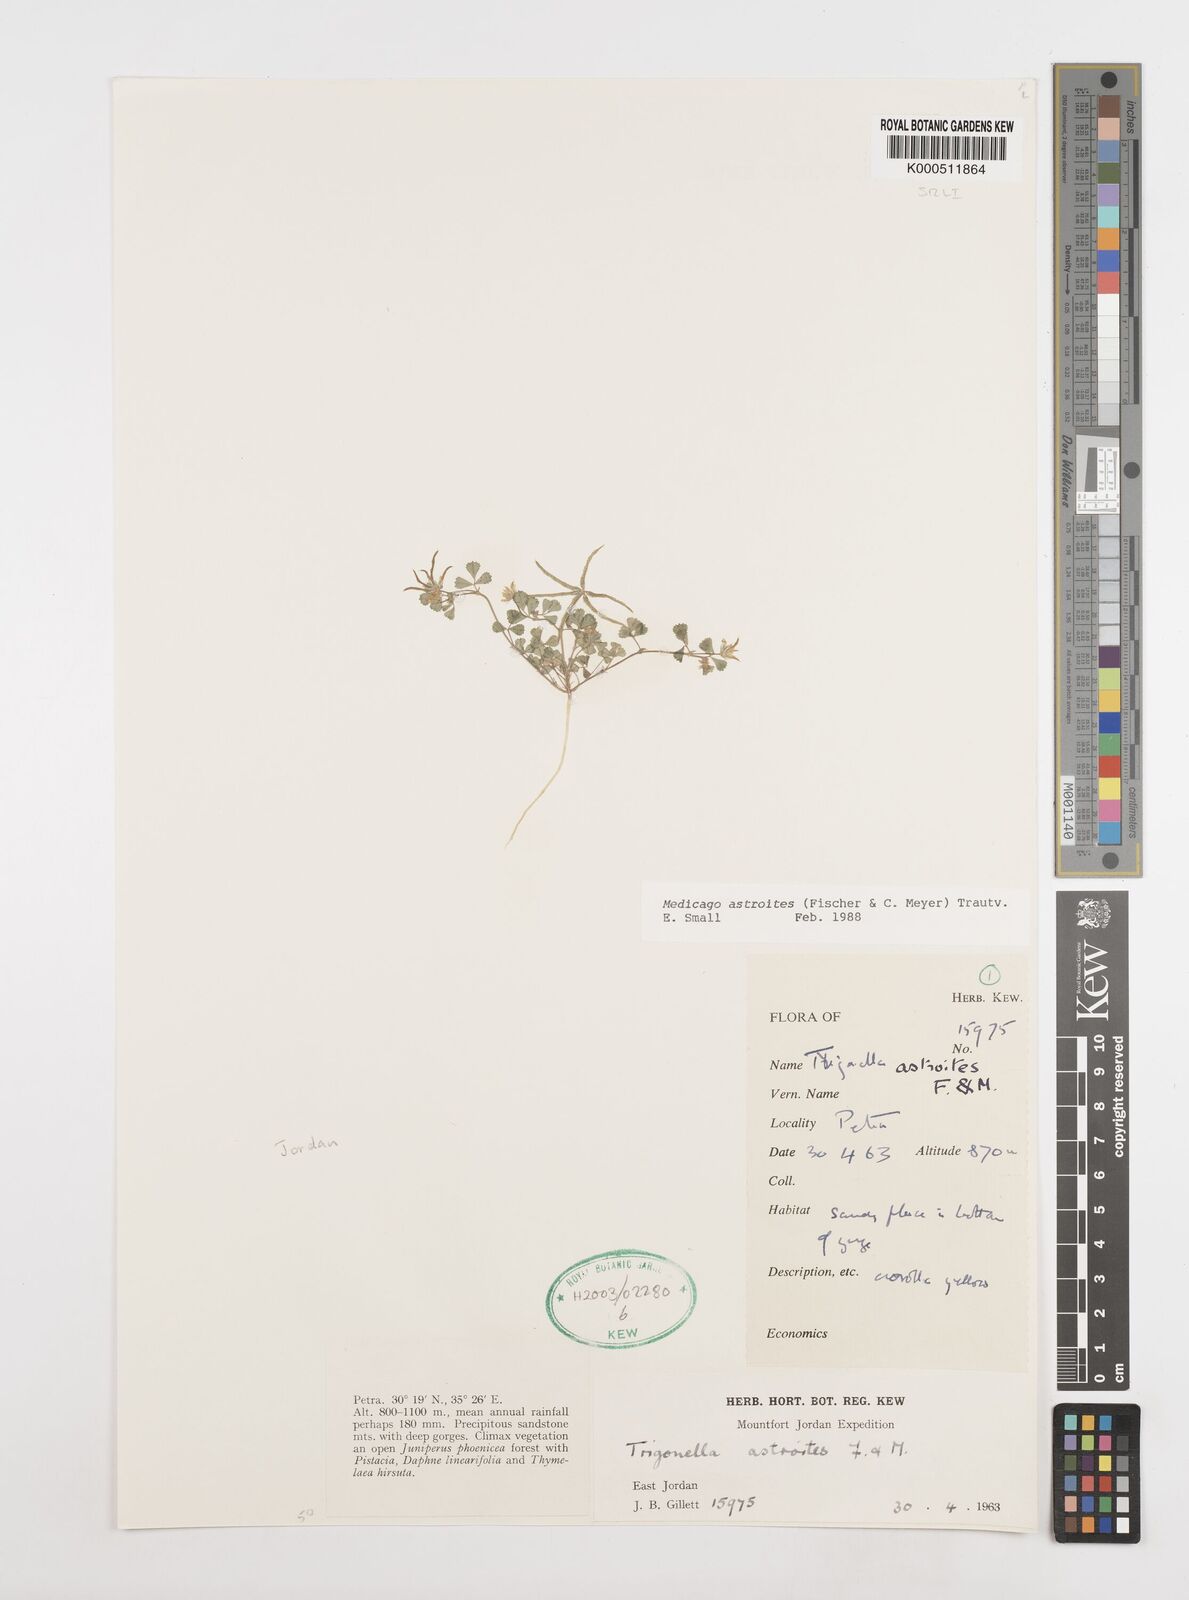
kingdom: Plantae
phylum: Tracheophyta
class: Magnoliopsida
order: Fabales
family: Fabaceae
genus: Medicago
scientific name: Medicago astroites
